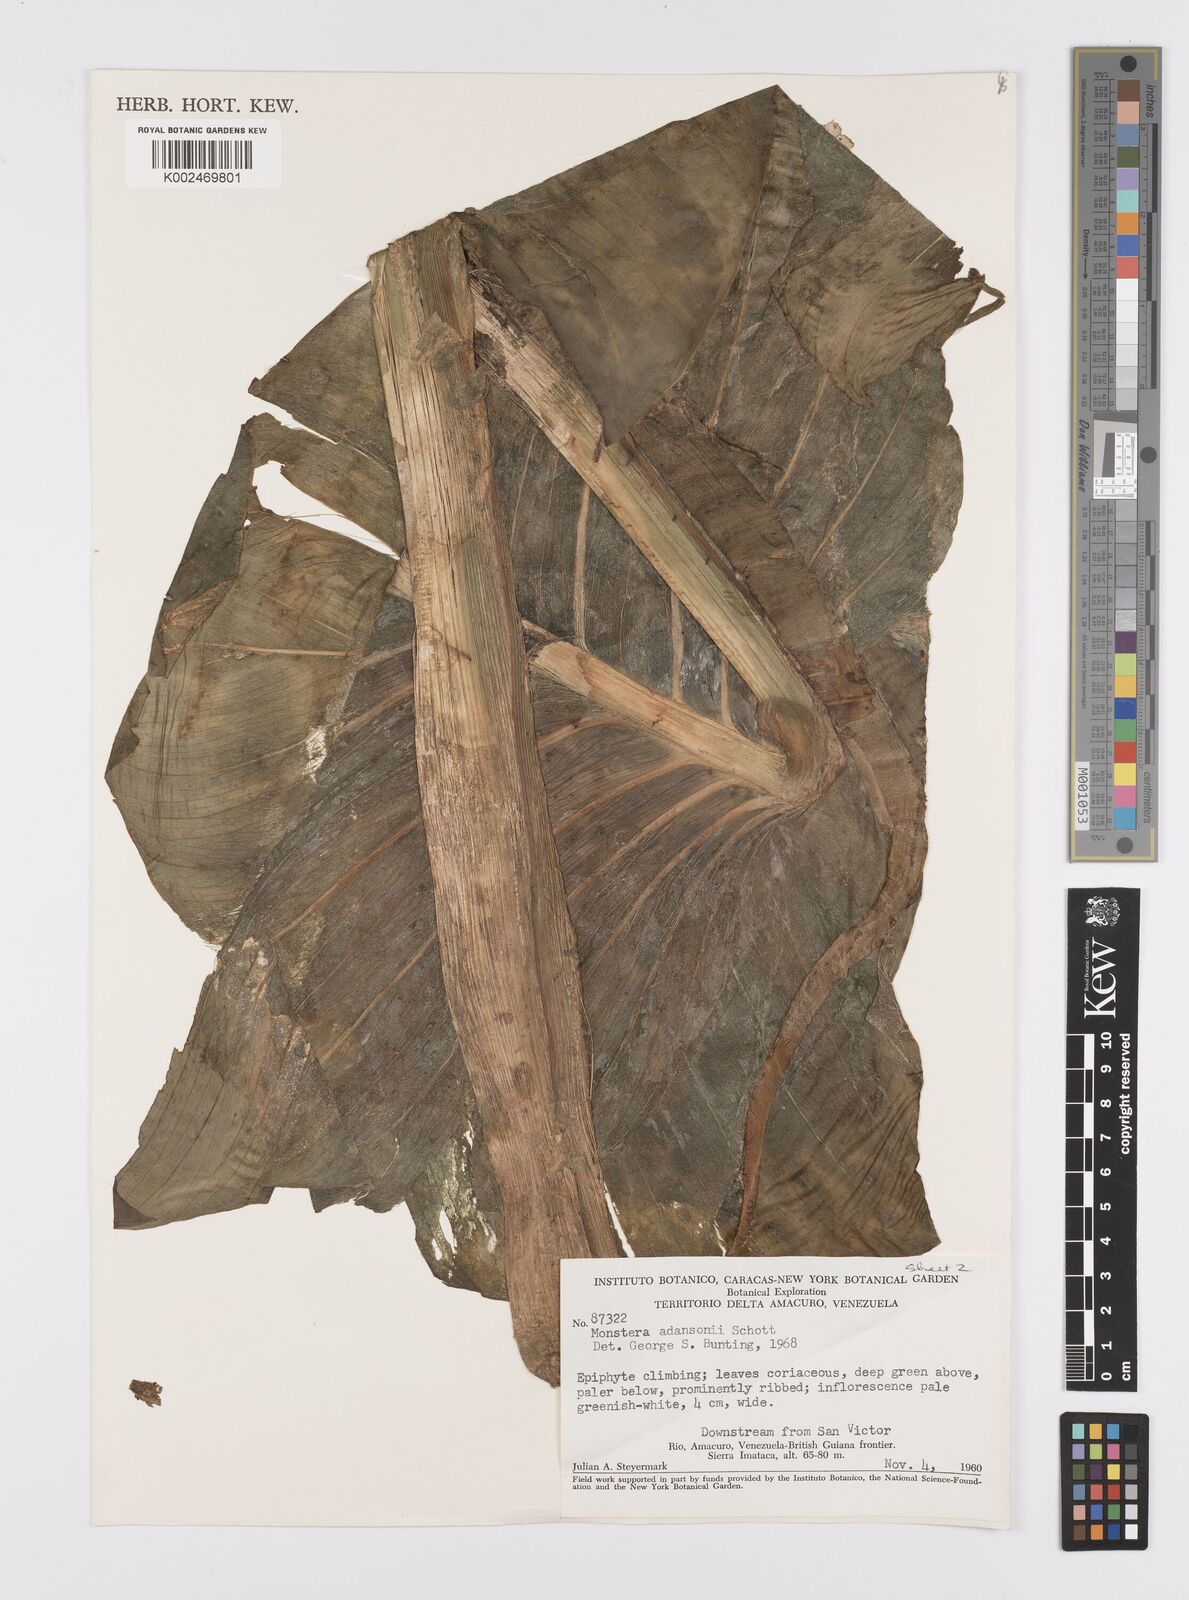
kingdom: Plantae
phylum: Tracheophyta
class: Liliopsida
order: Alismatales
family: Araceae
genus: Monstera
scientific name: Monstera adansonii
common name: Tarovine
